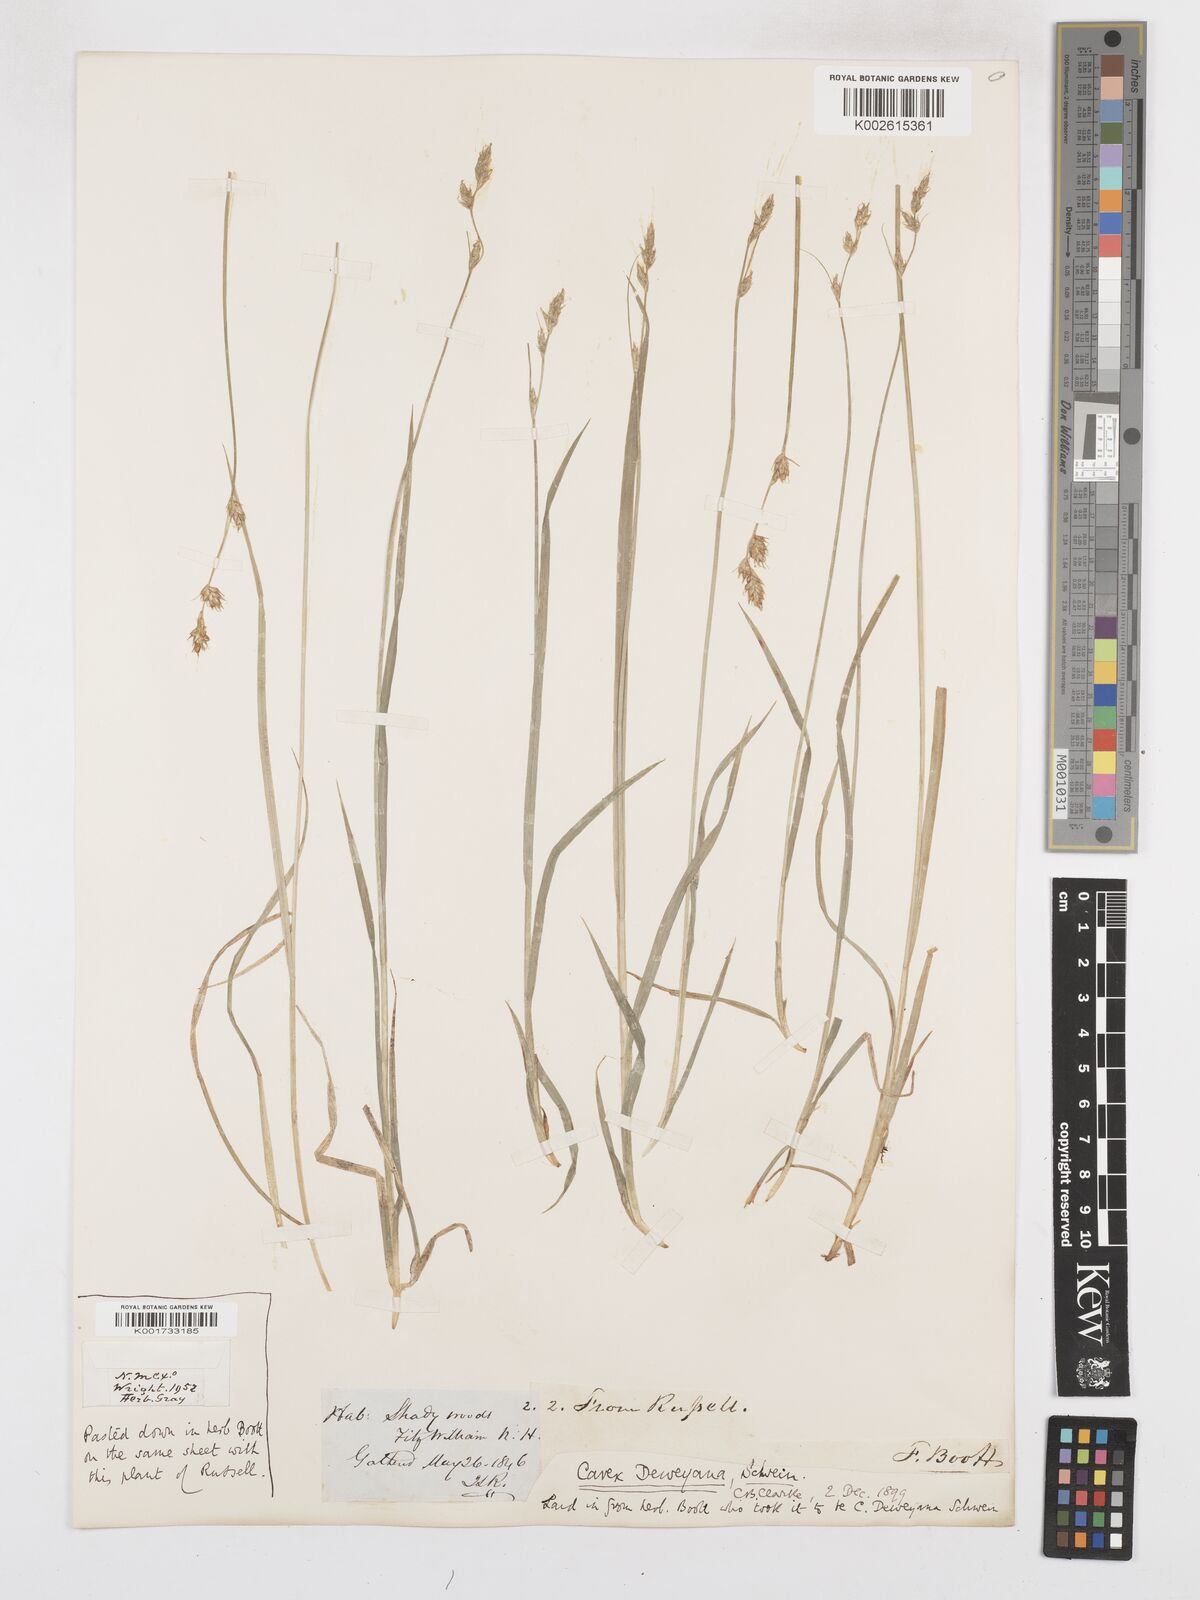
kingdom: Plantae
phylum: Tracheophyta
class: Liliopsida
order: Poales
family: Cyperaceae
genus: Carex
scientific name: Carex deweyana
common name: Dewey's sedge
